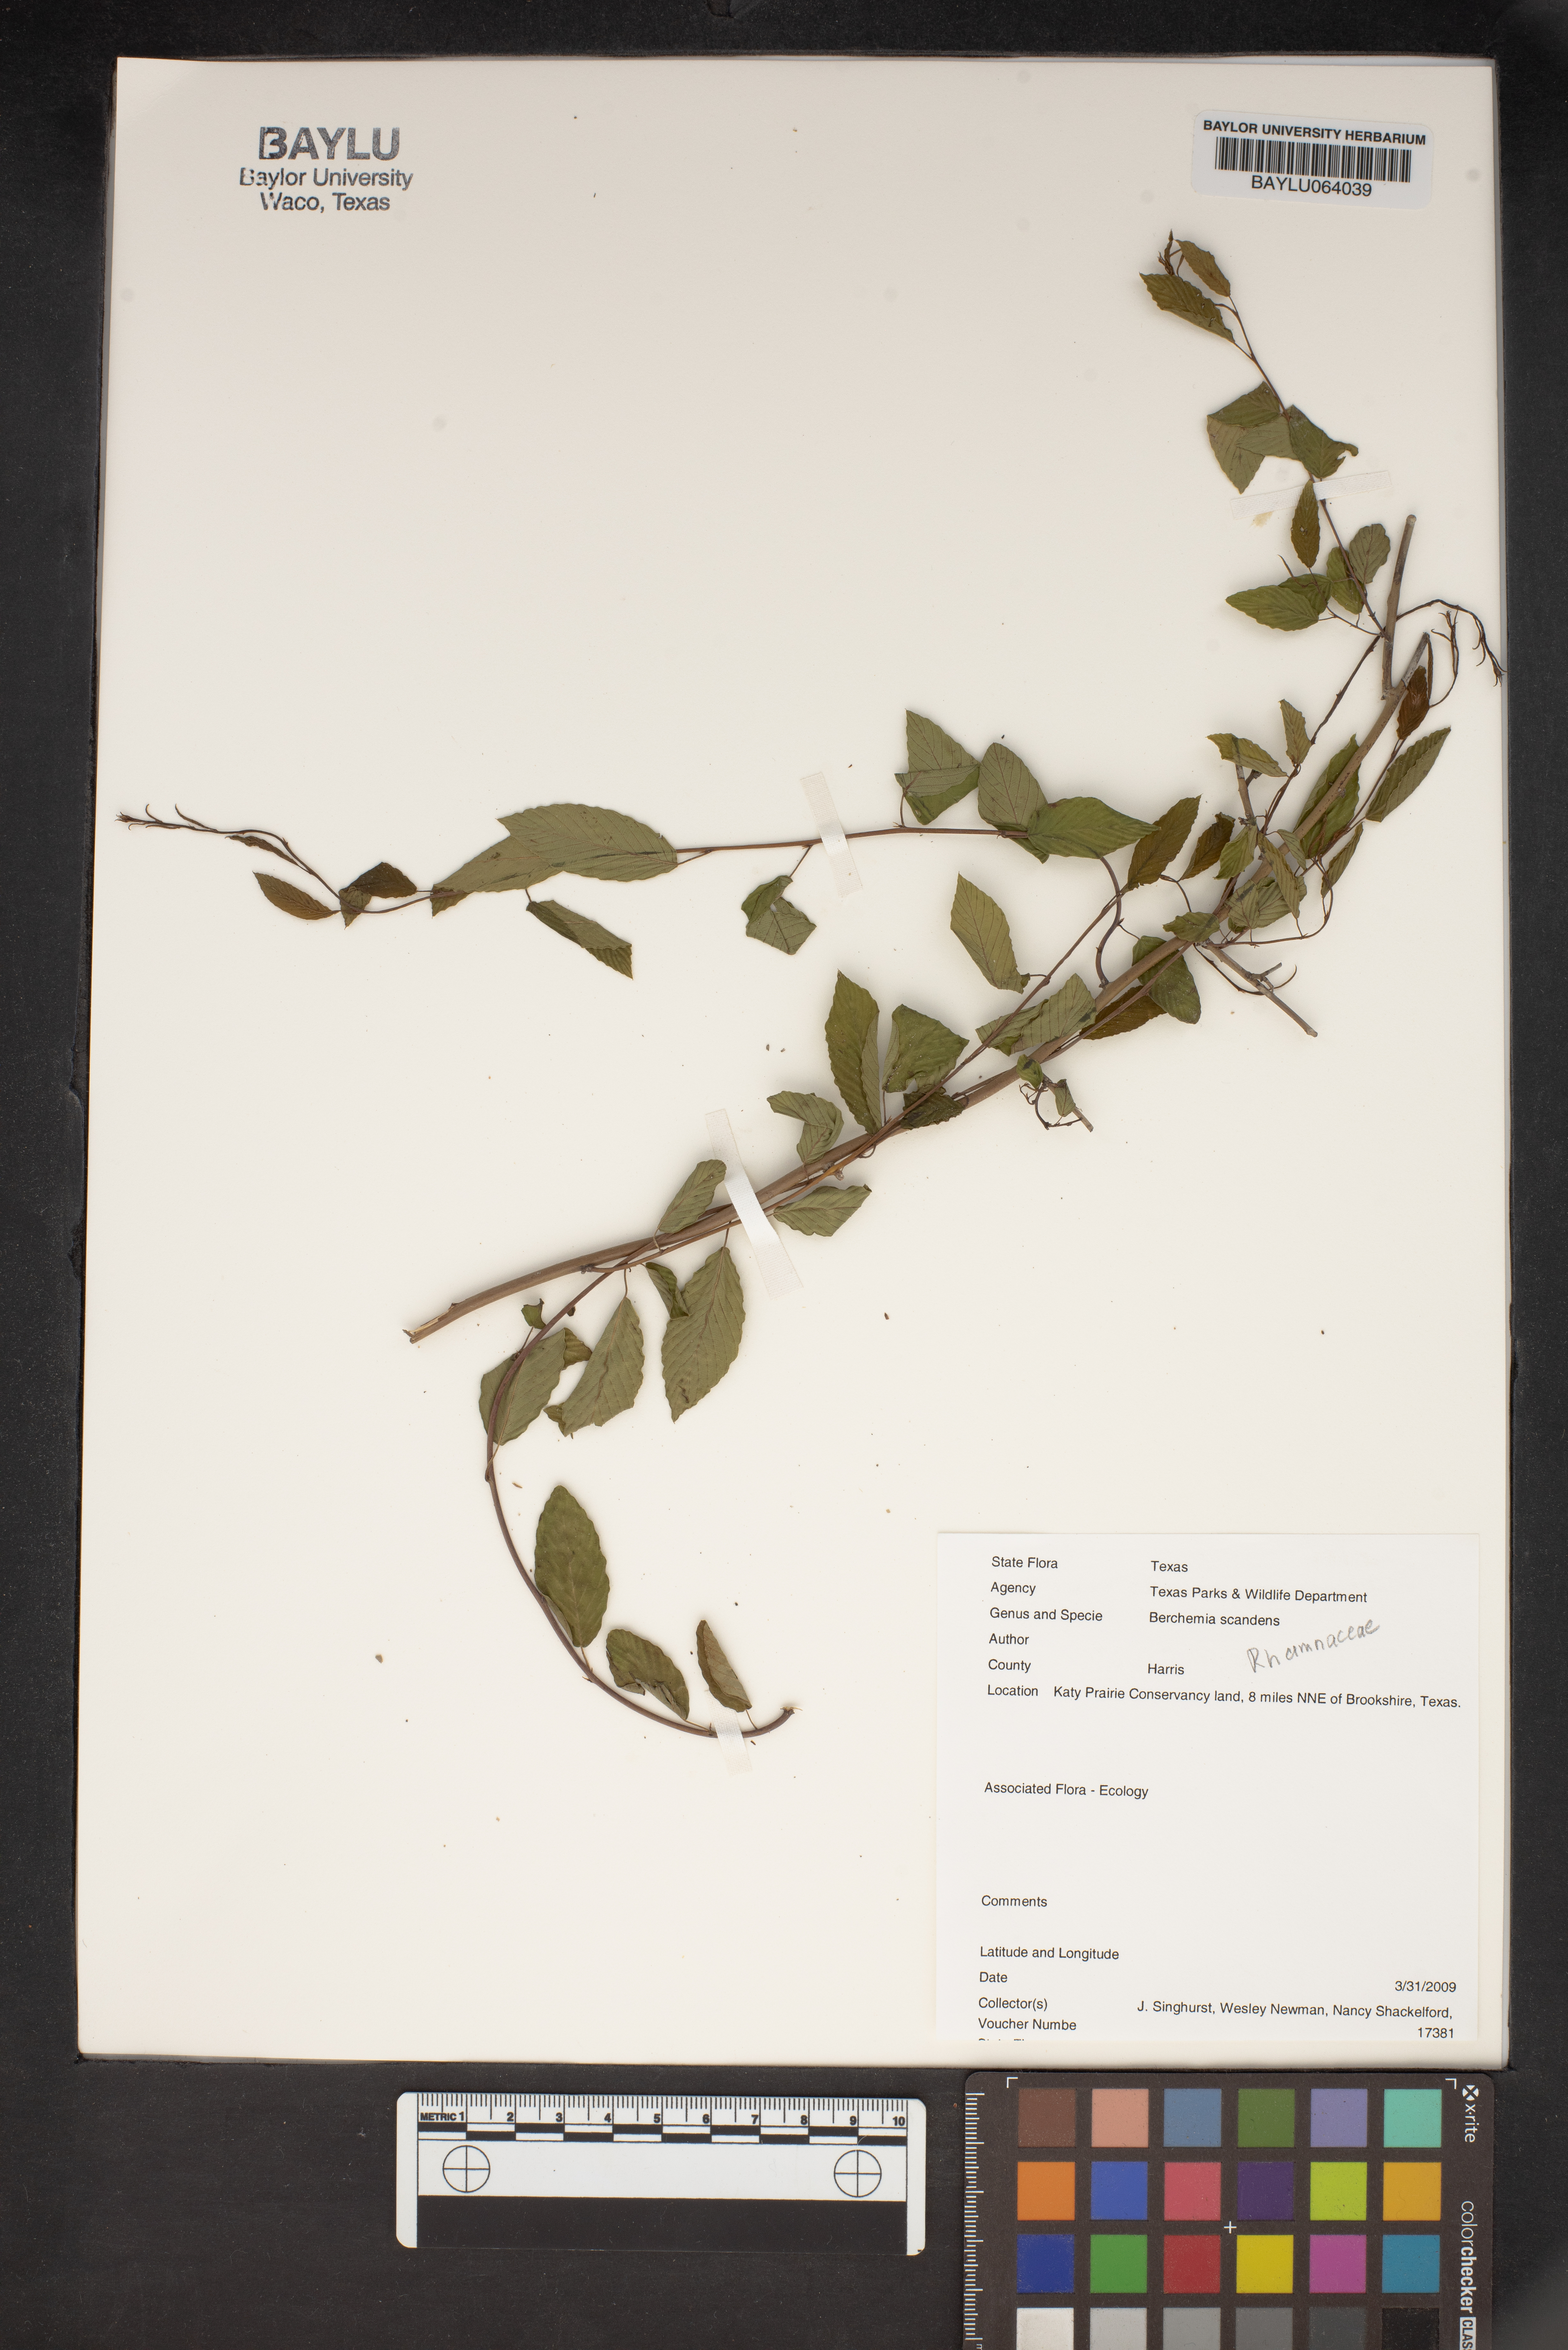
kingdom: Plantae
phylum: Tracheophyta
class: Magnoliopsida
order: Rosales
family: Rhamnaceae
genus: Berchemia
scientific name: Berchemia scandens
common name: Supplejack
